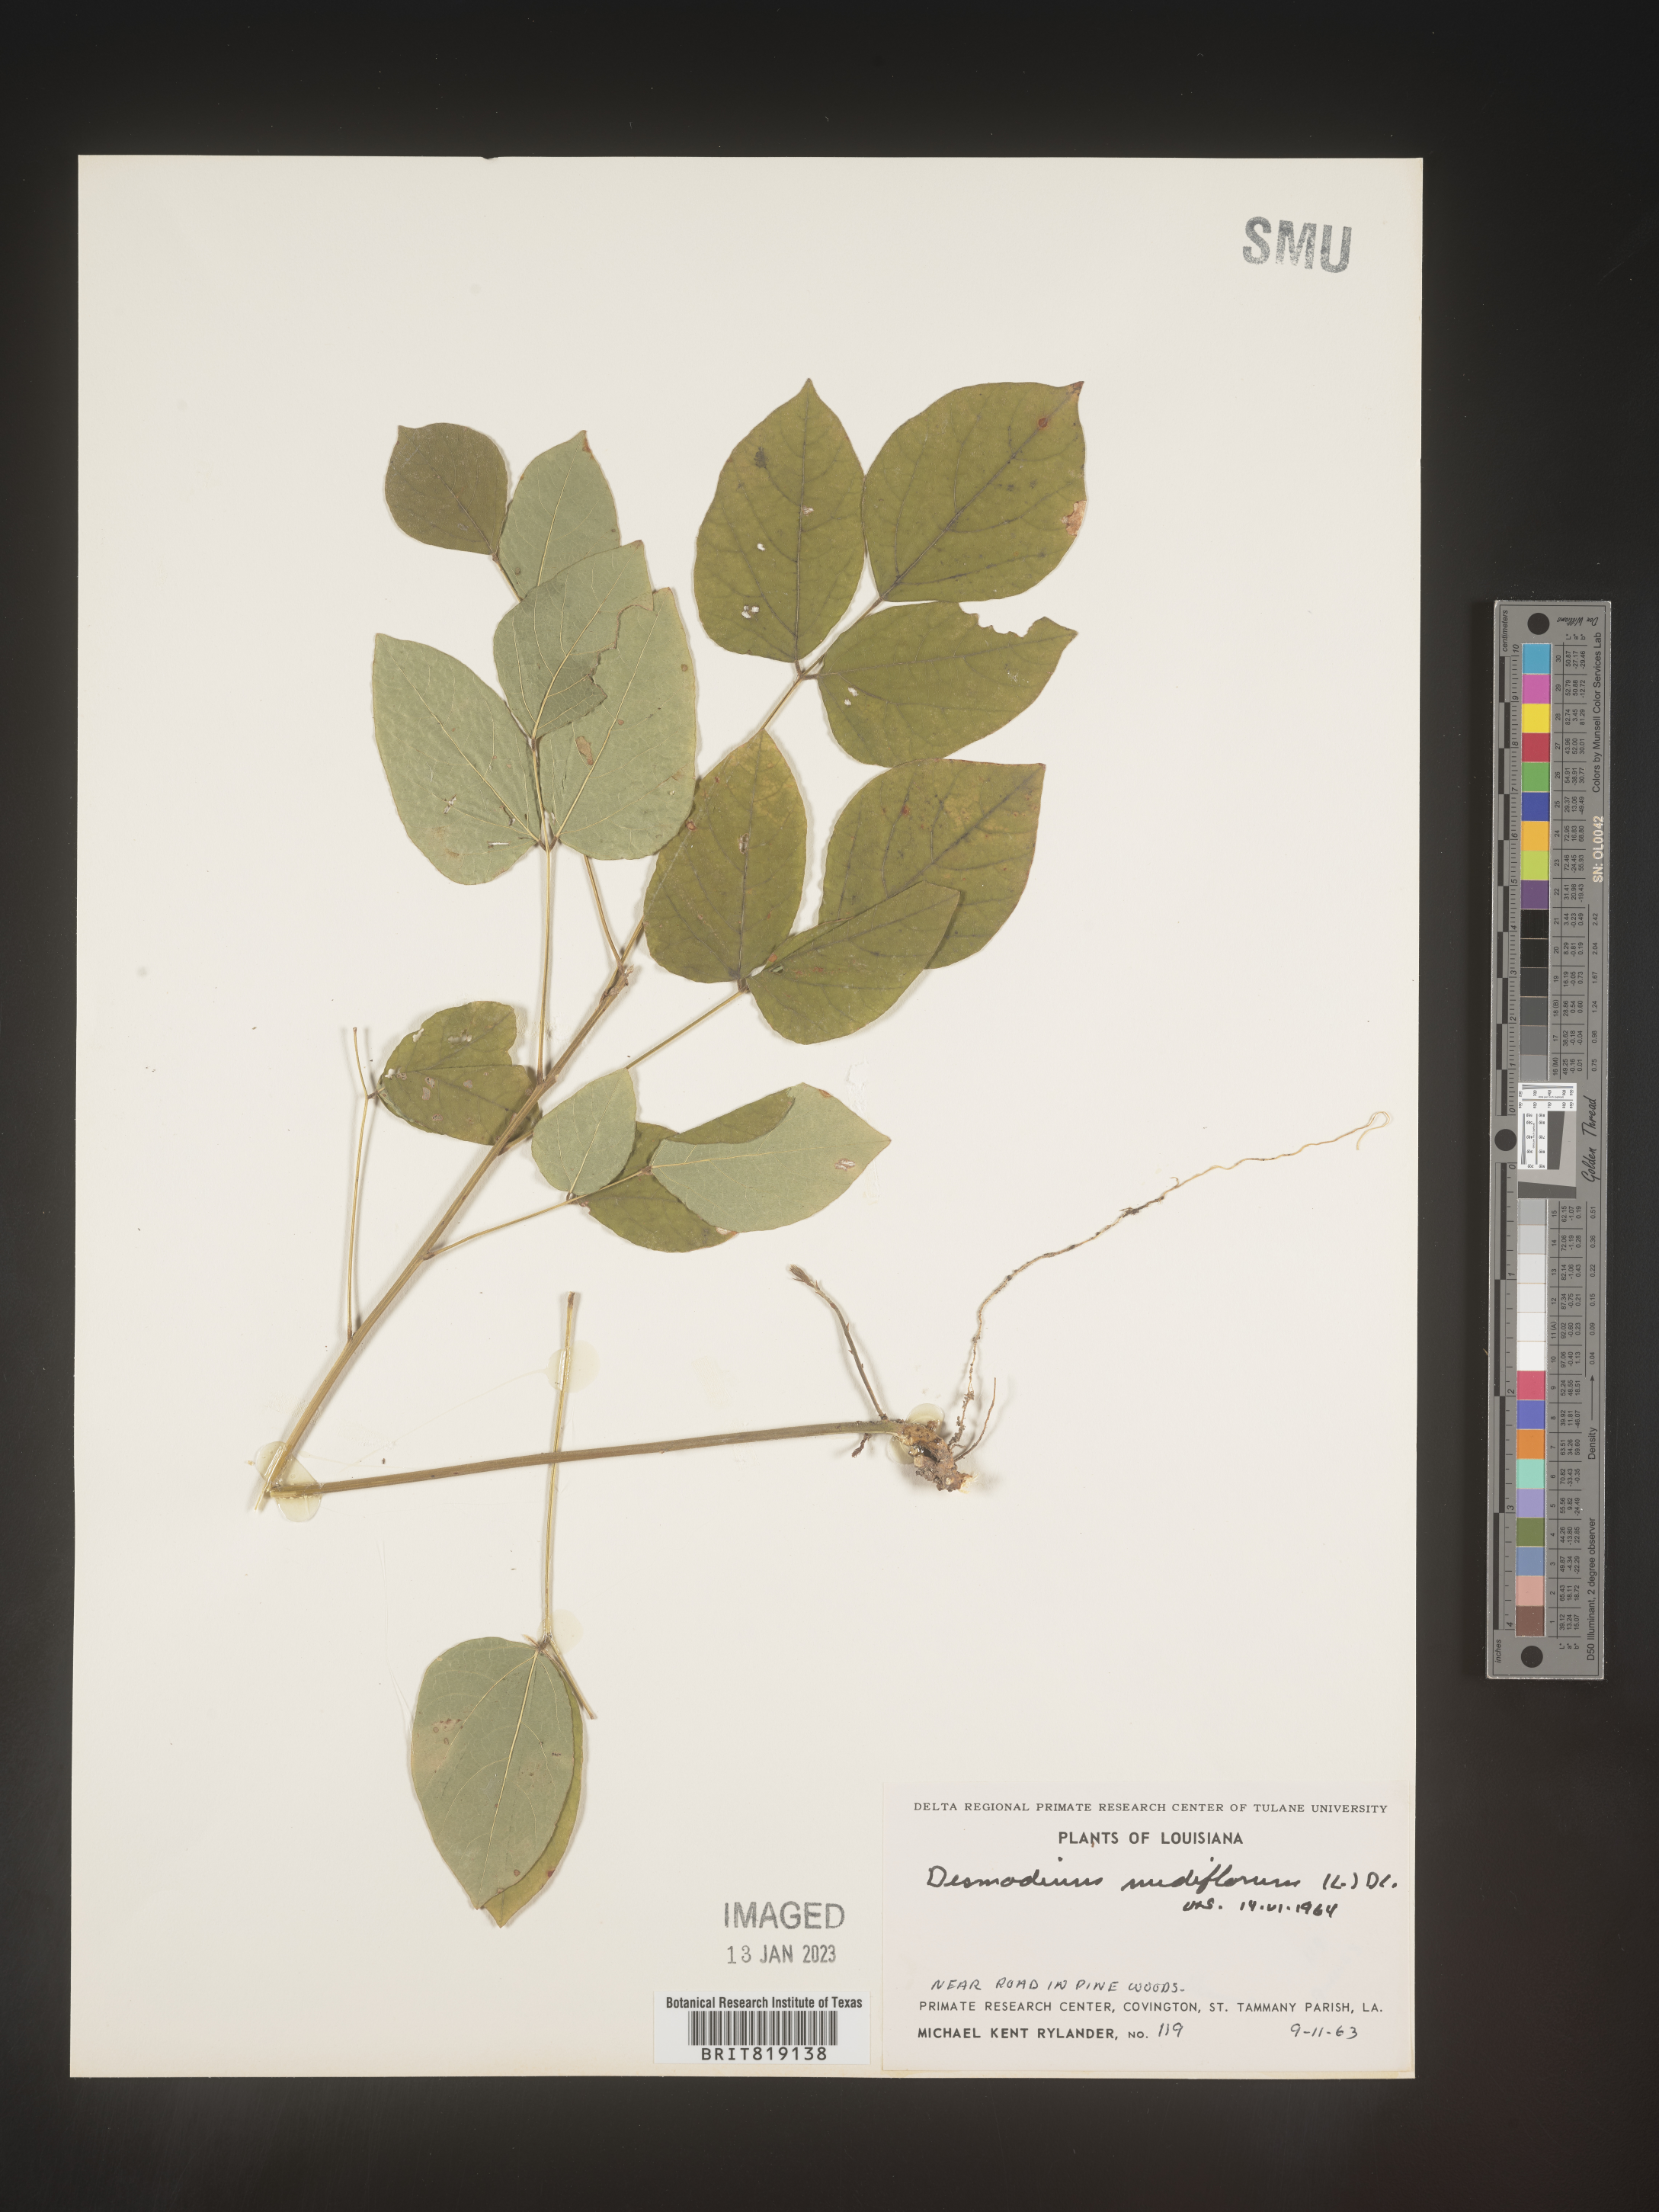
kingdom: Plantae
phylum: Tracheophyta
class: Magnoliopsida
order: Fabales
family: Fabaceae
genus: Hylodesmum
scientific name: Hylodesmum nudiflorum
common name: Bare-stemmed tick-trefoil
